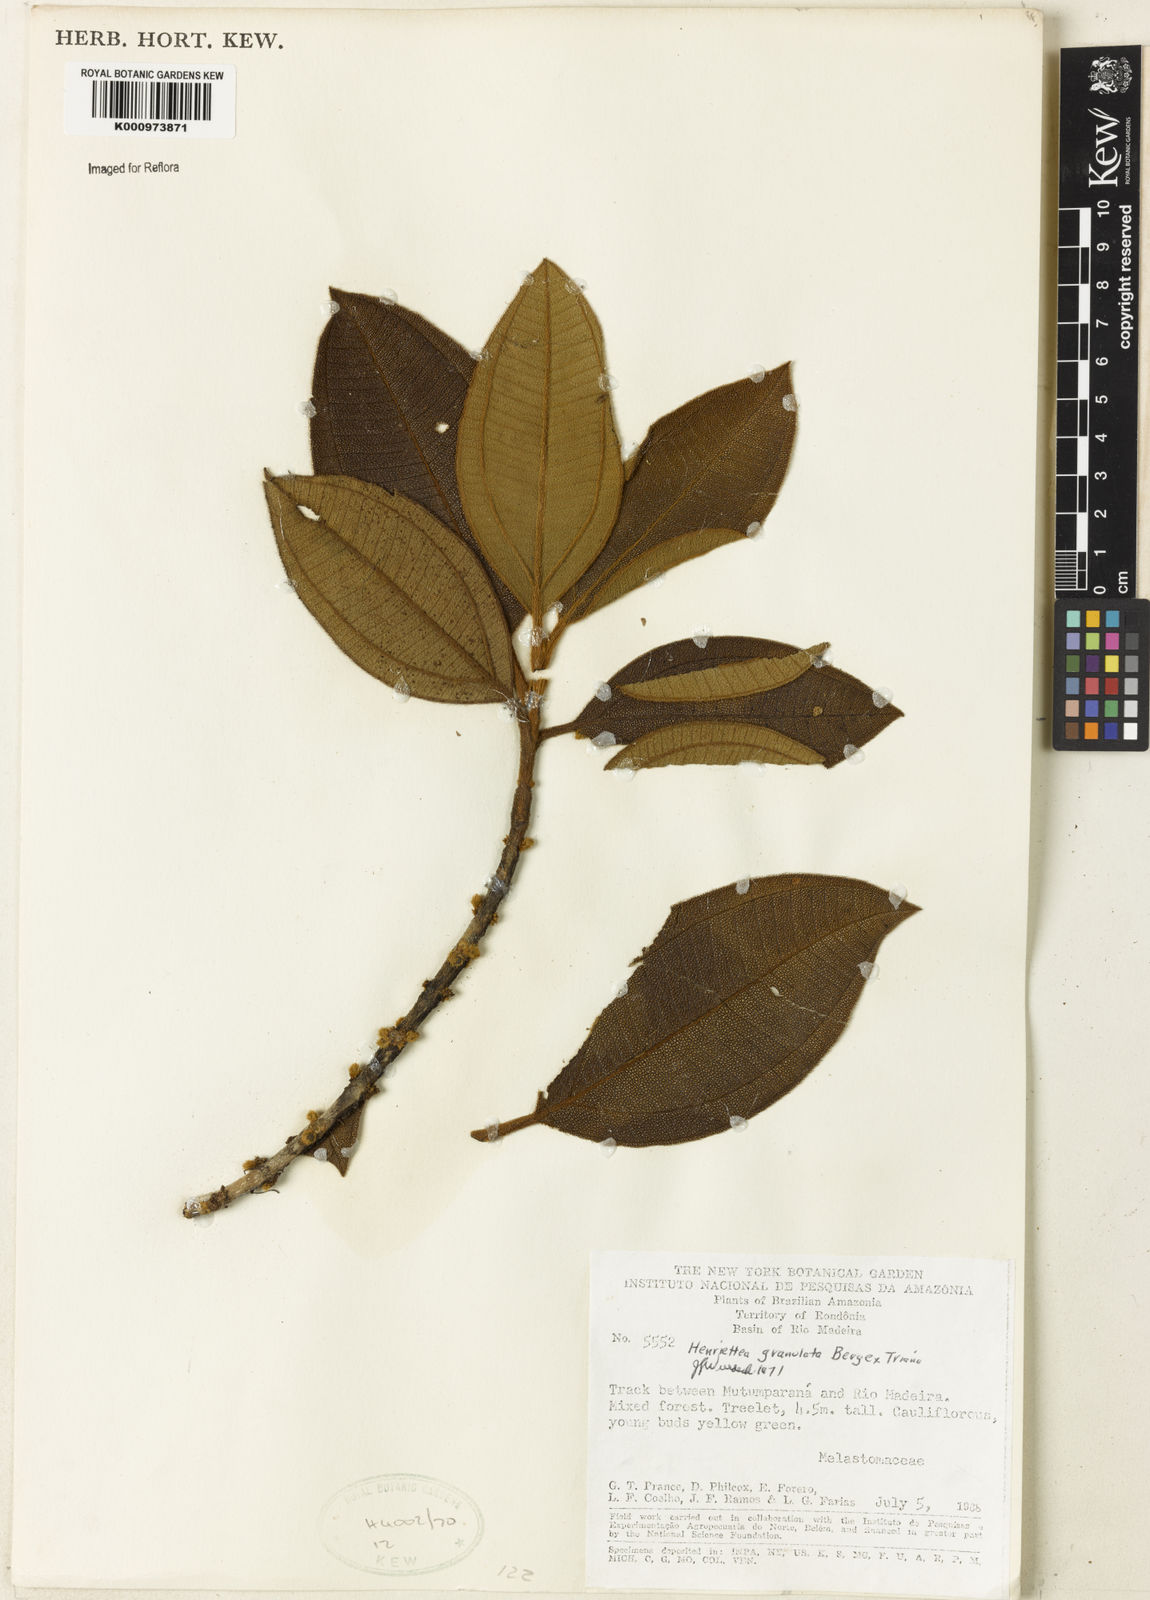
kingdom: Plantae
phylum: Tracheophyta
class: Magnoliopsida
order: Myrtales
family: Melastomataceae
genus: Henriettea
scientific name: Henriettea granulata
